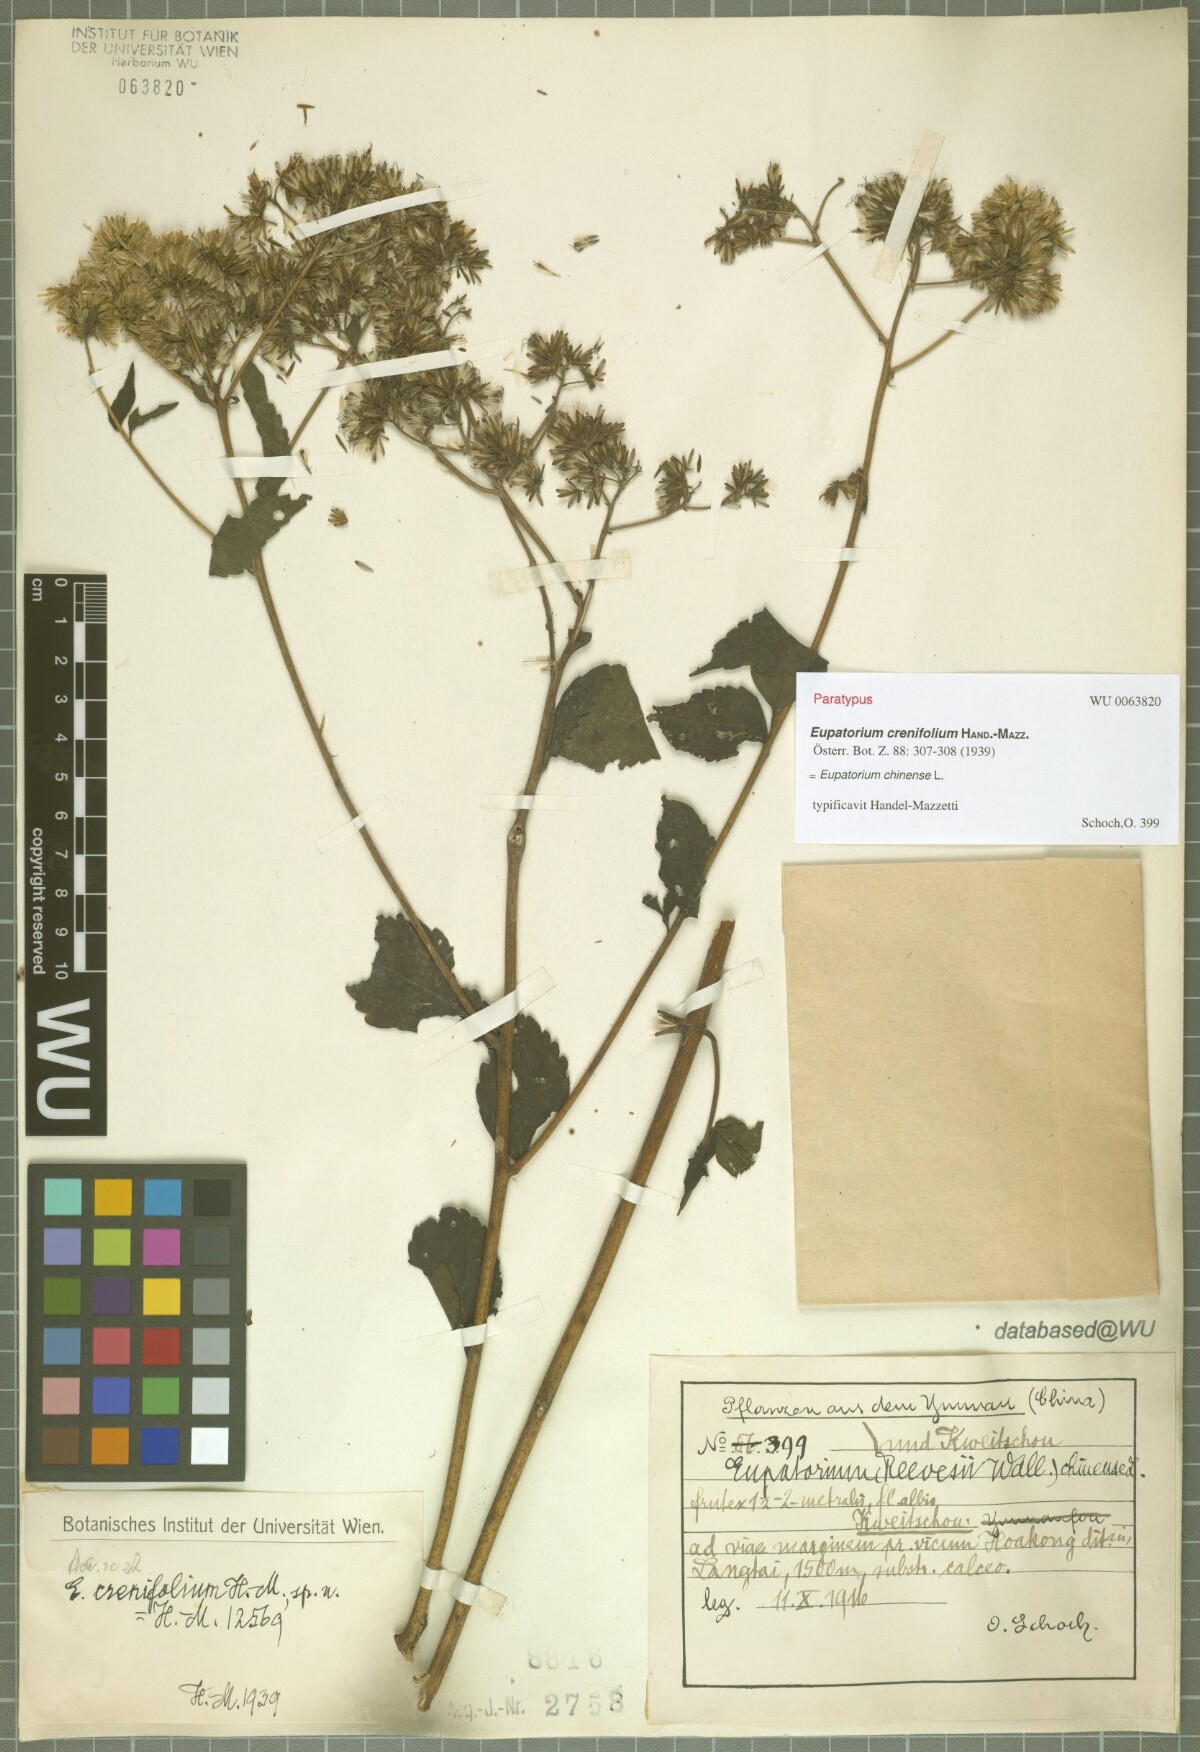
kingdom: Plantae
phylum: Tracheophyta
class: Magnoliopsida
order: Asterales
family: Asteraceae
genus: Eupatorium
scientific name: Eupatorium crenifolium
